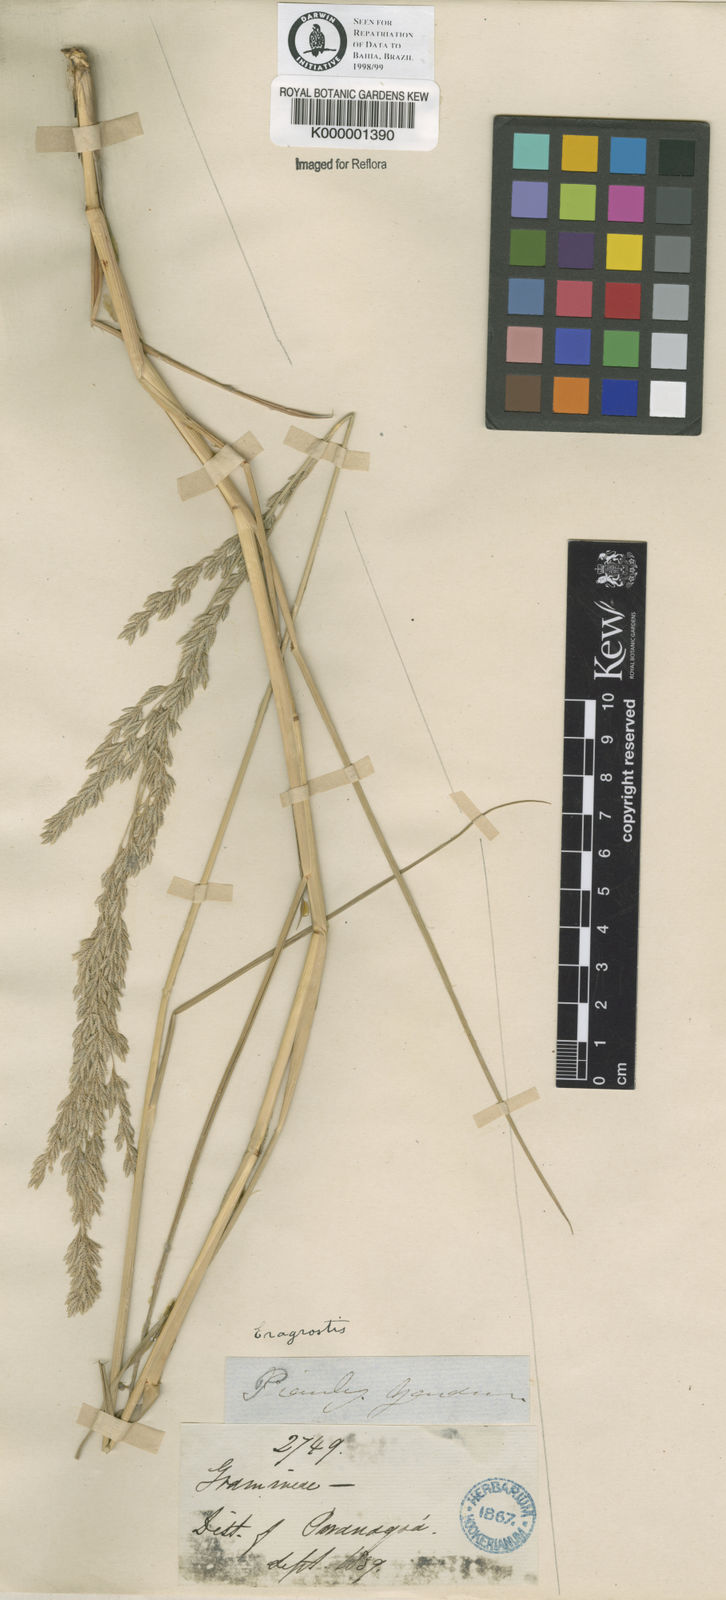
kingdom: Plantae
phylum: Tracheophyta
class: Liliopsida
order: Poales
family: Poaceae
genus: Eragrostis
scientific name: Eragrostis bahiensis
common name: Bahia lovegrass
